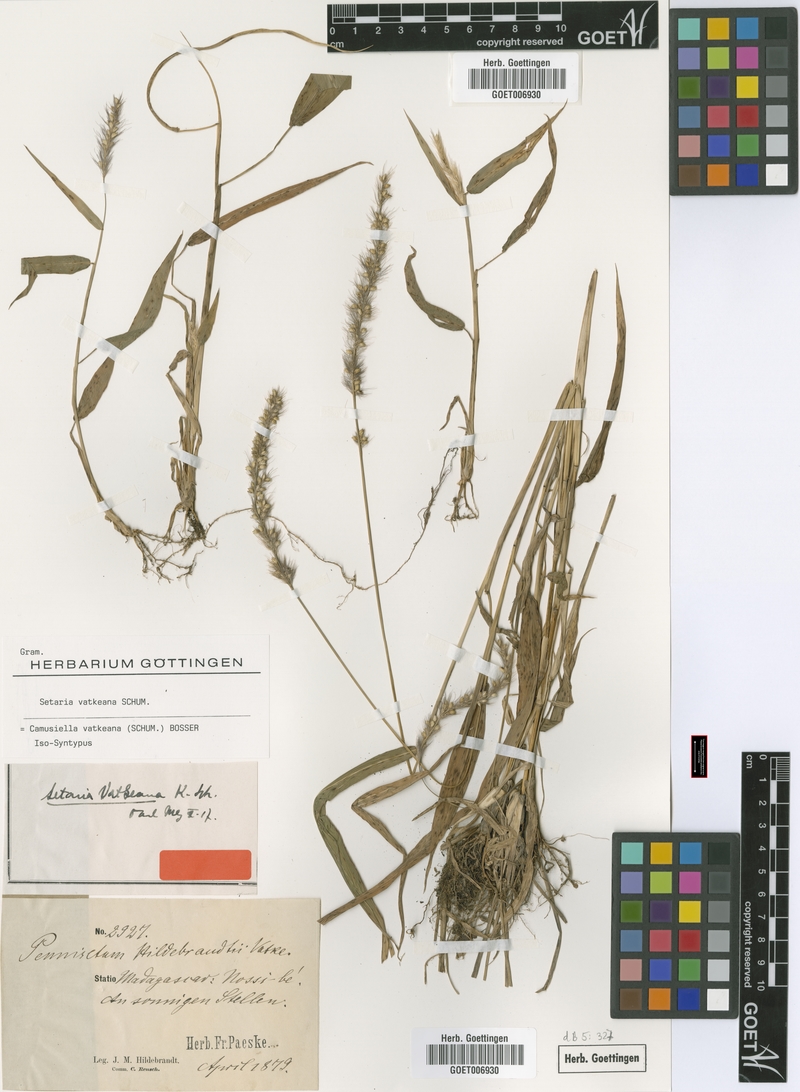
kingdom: Plantae
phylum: Tracheophyta
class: Liliopsida
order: Poales
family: Poaceae
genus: Setaria
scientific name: Setaria vatkeana
